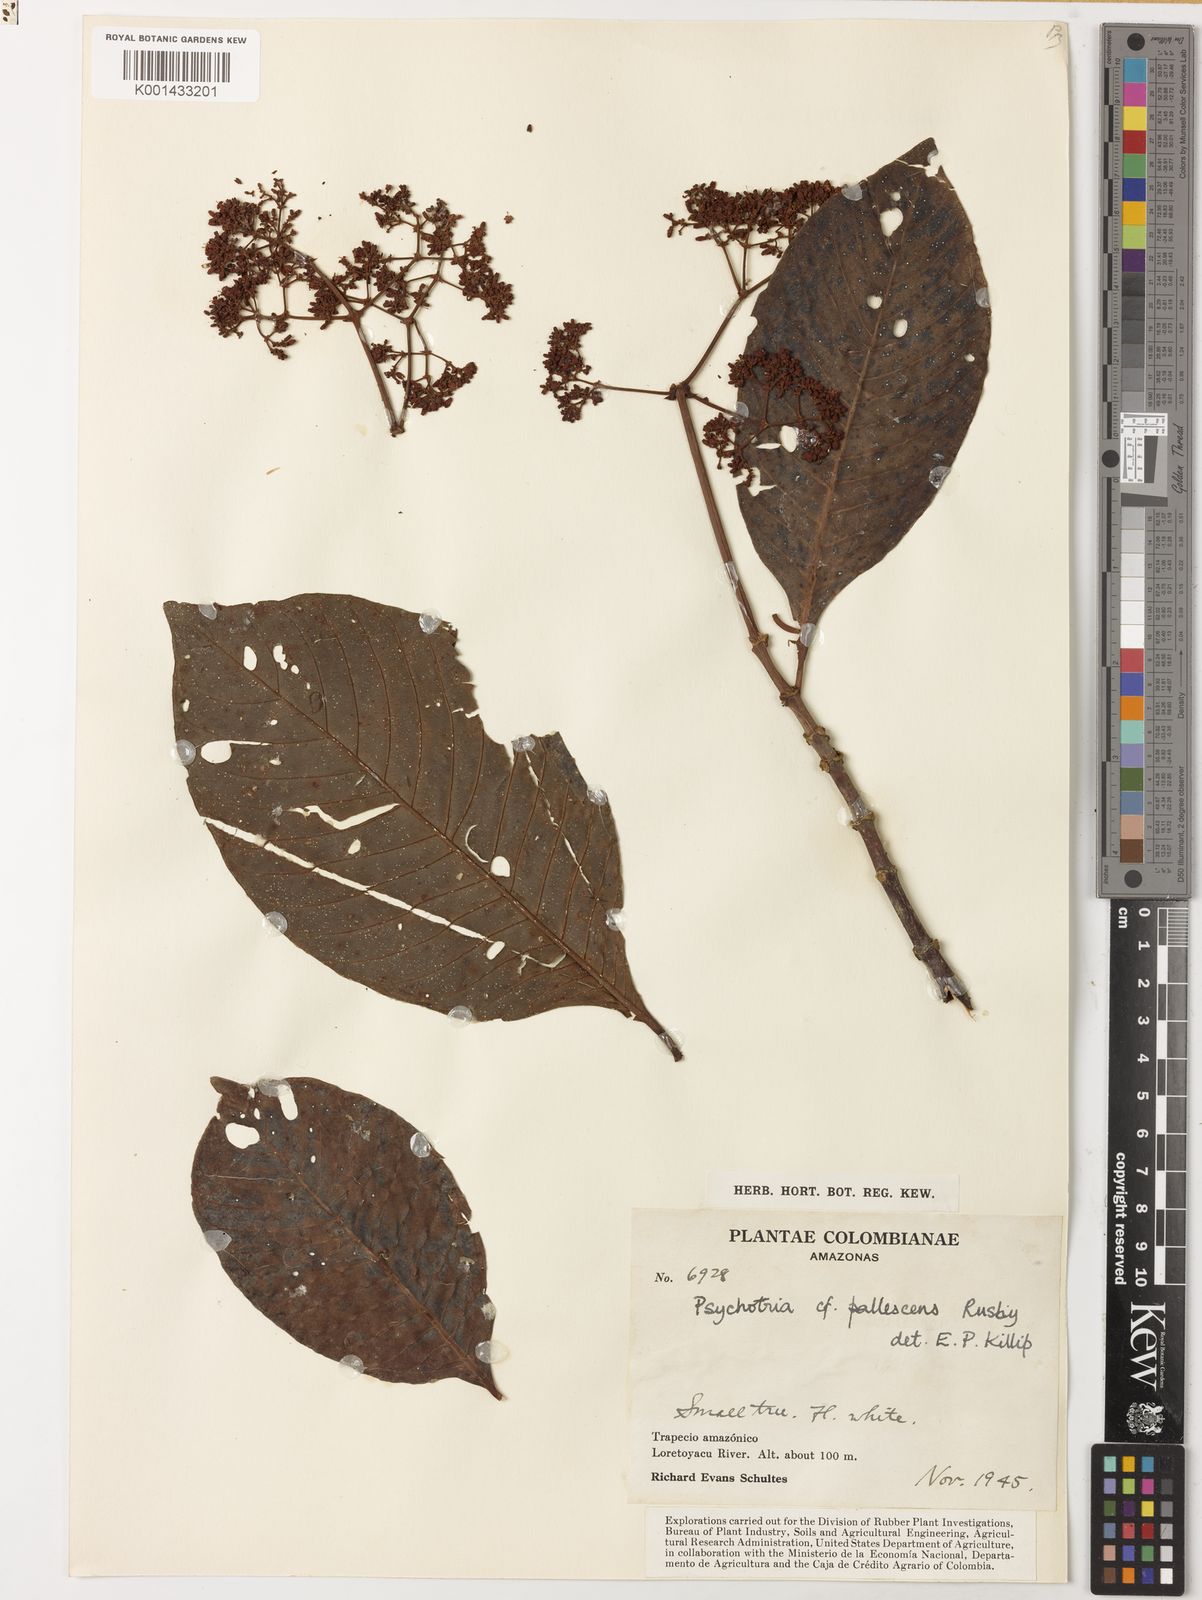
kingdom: Plantae
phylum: Tracheophyta
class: Magnoliopsida
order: Gentianales
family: Rubiaceae
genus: Psychotria
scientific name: Psychotria carthagenensis
